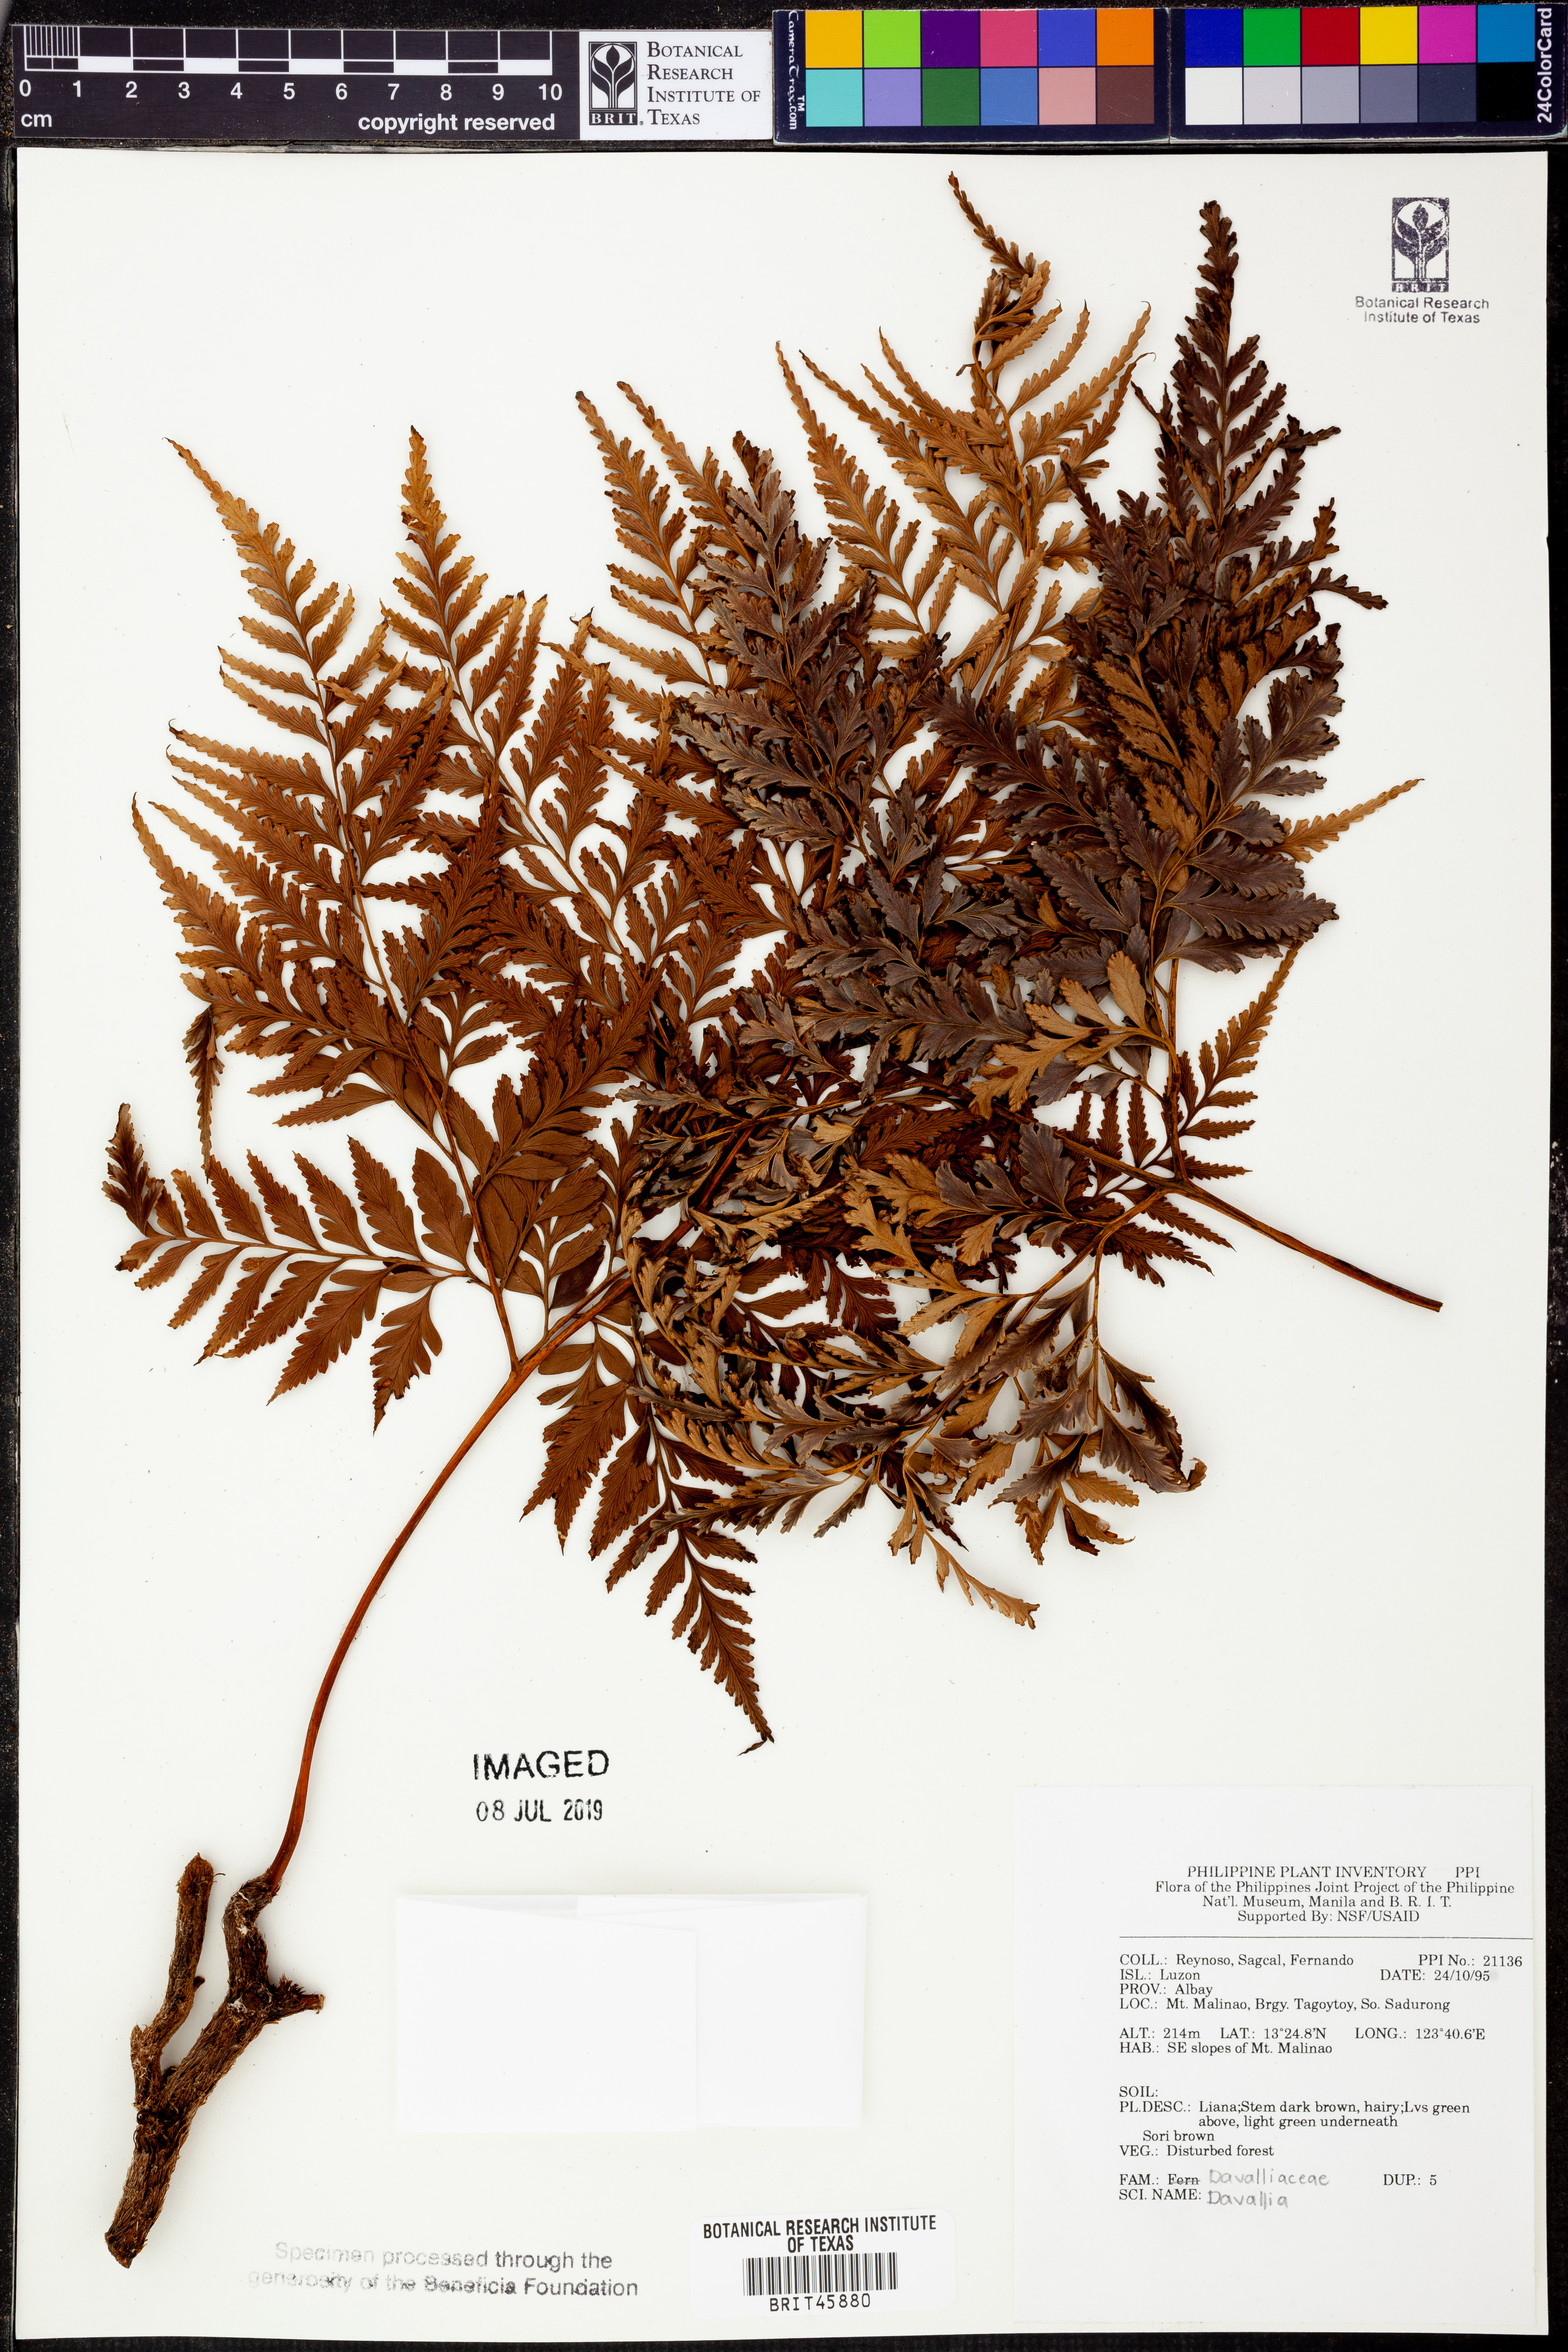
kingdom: Plantae
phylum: Tracheophyta
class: Polypodiopsida
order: Polypodiales
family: Davalliaceae
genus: Davallia
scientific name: Davallia
